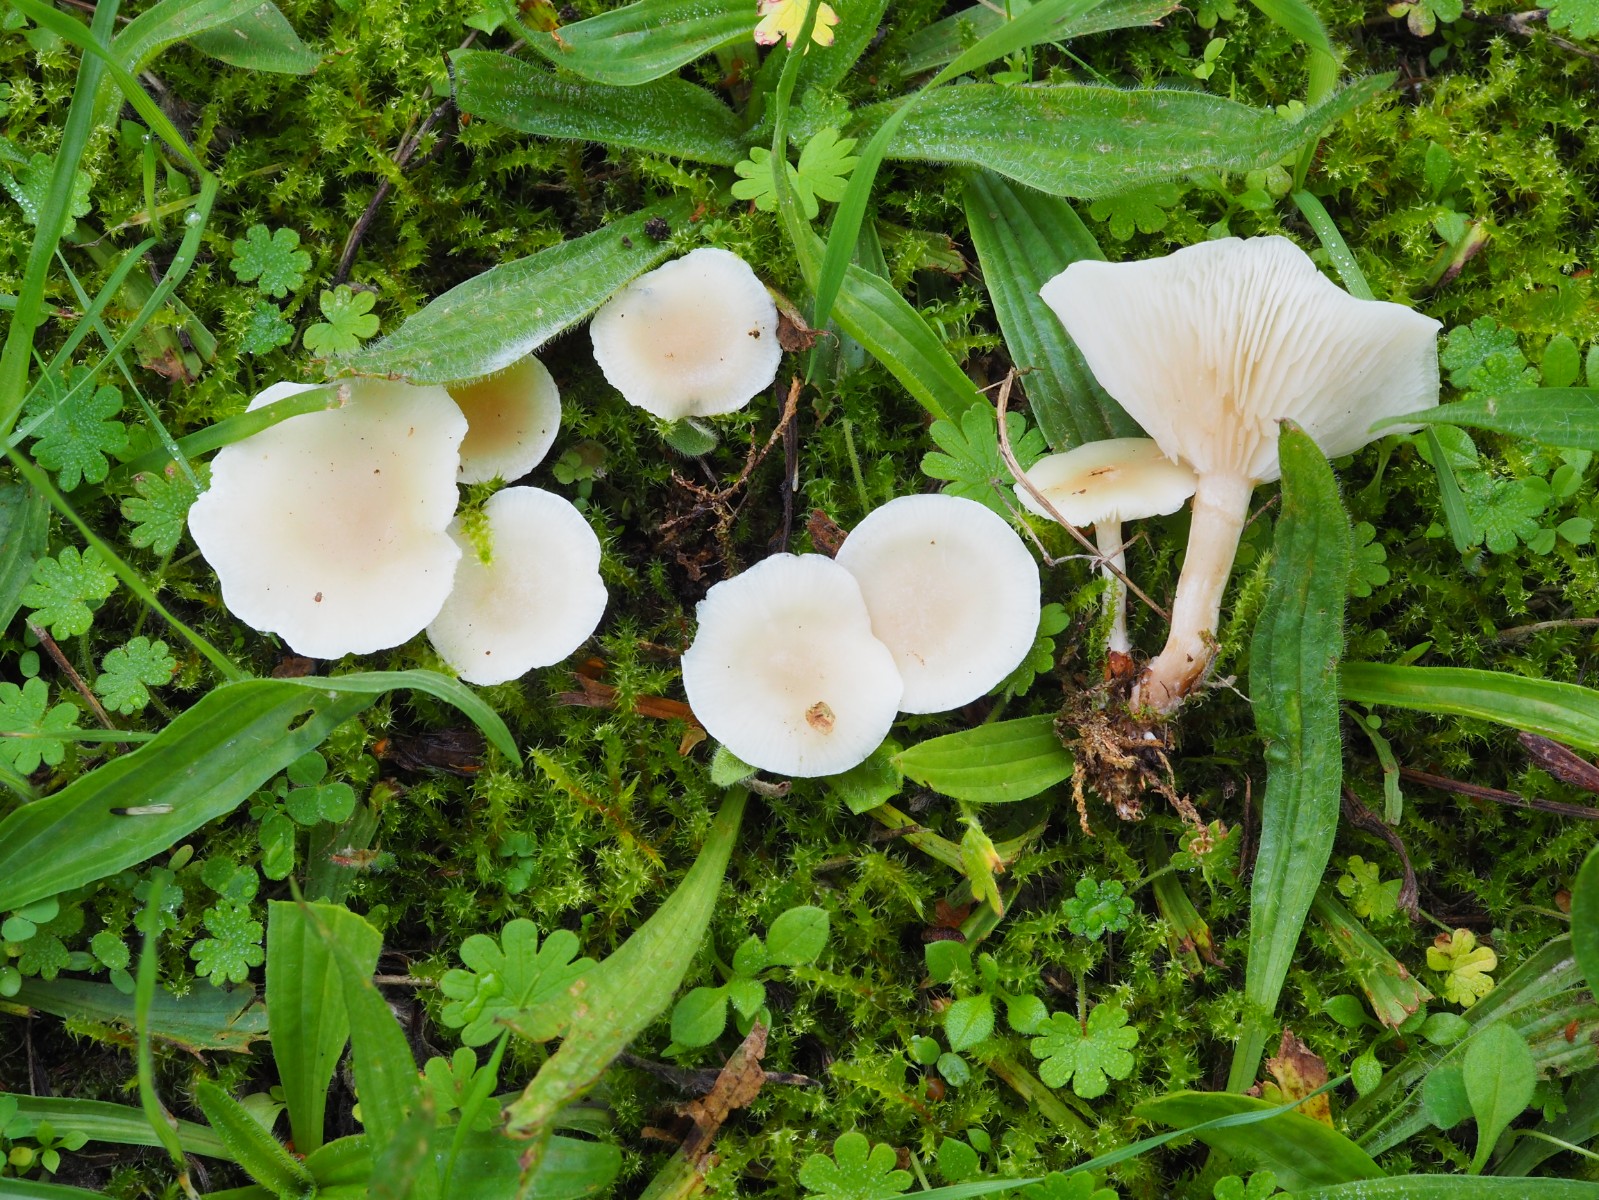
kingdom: Fungi
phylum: Basidiomycota
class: Agaricomycetes
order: Agaricales
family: Tricholomataceae
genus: Clitocybe
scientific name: Clitocybe agrestis
